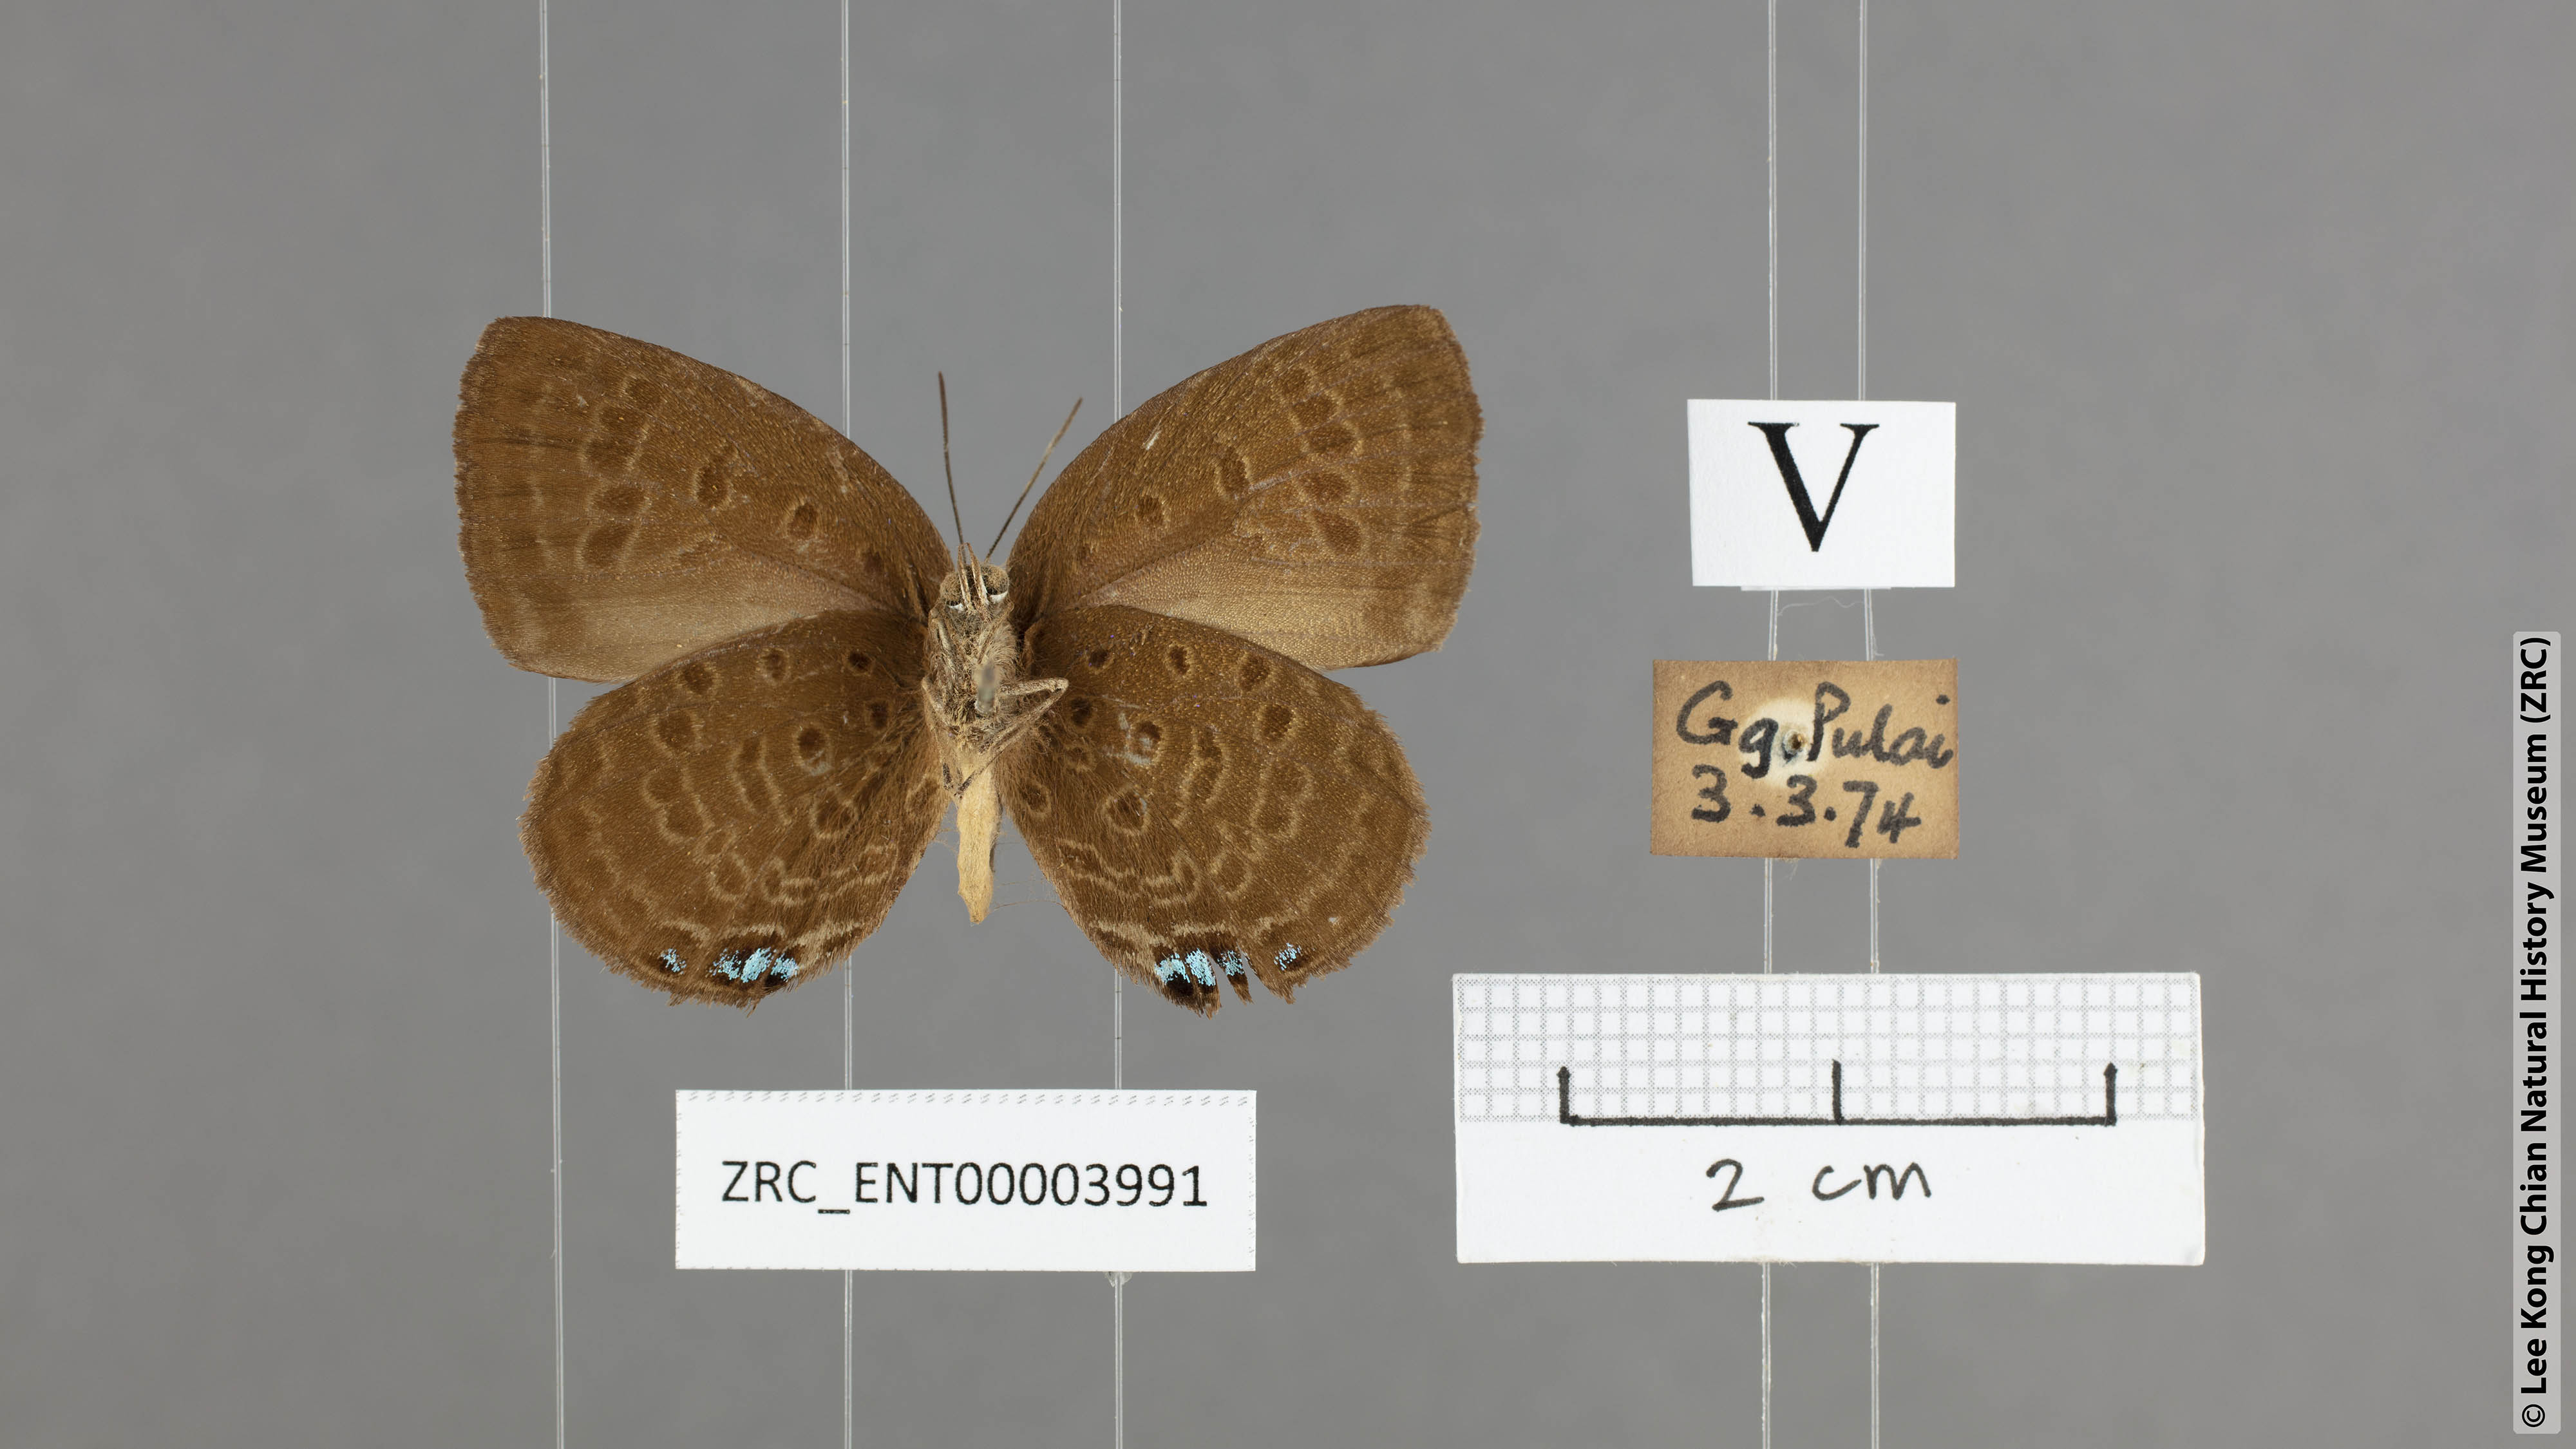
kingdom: Animalia
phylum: Arthropoda
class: Insecta
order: Lepidoptera
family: Lycaenidae
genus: Arhopala
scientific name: Arhopala major
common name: Major yellow oakblue
